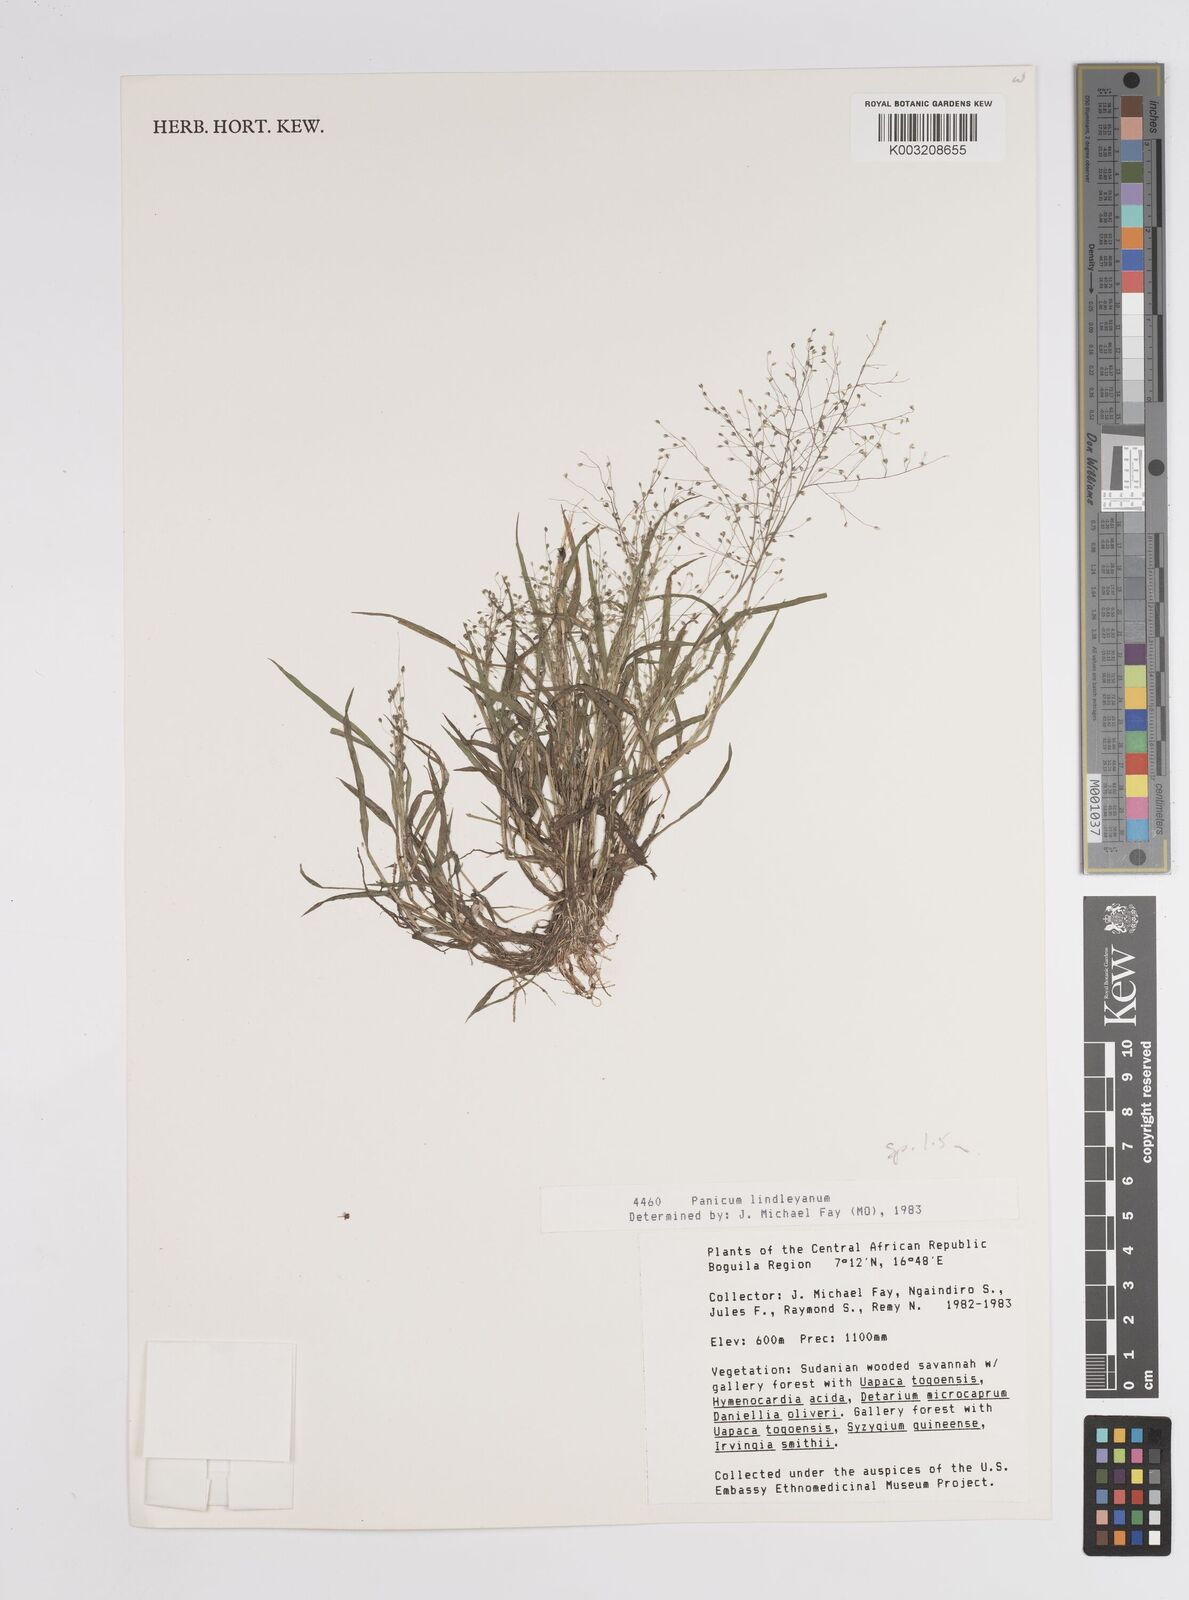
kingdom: Plantae
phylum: Tracheophyta
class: Liliopsida
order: Poales
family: Poaceae
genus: Panicum
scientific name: Panicum
